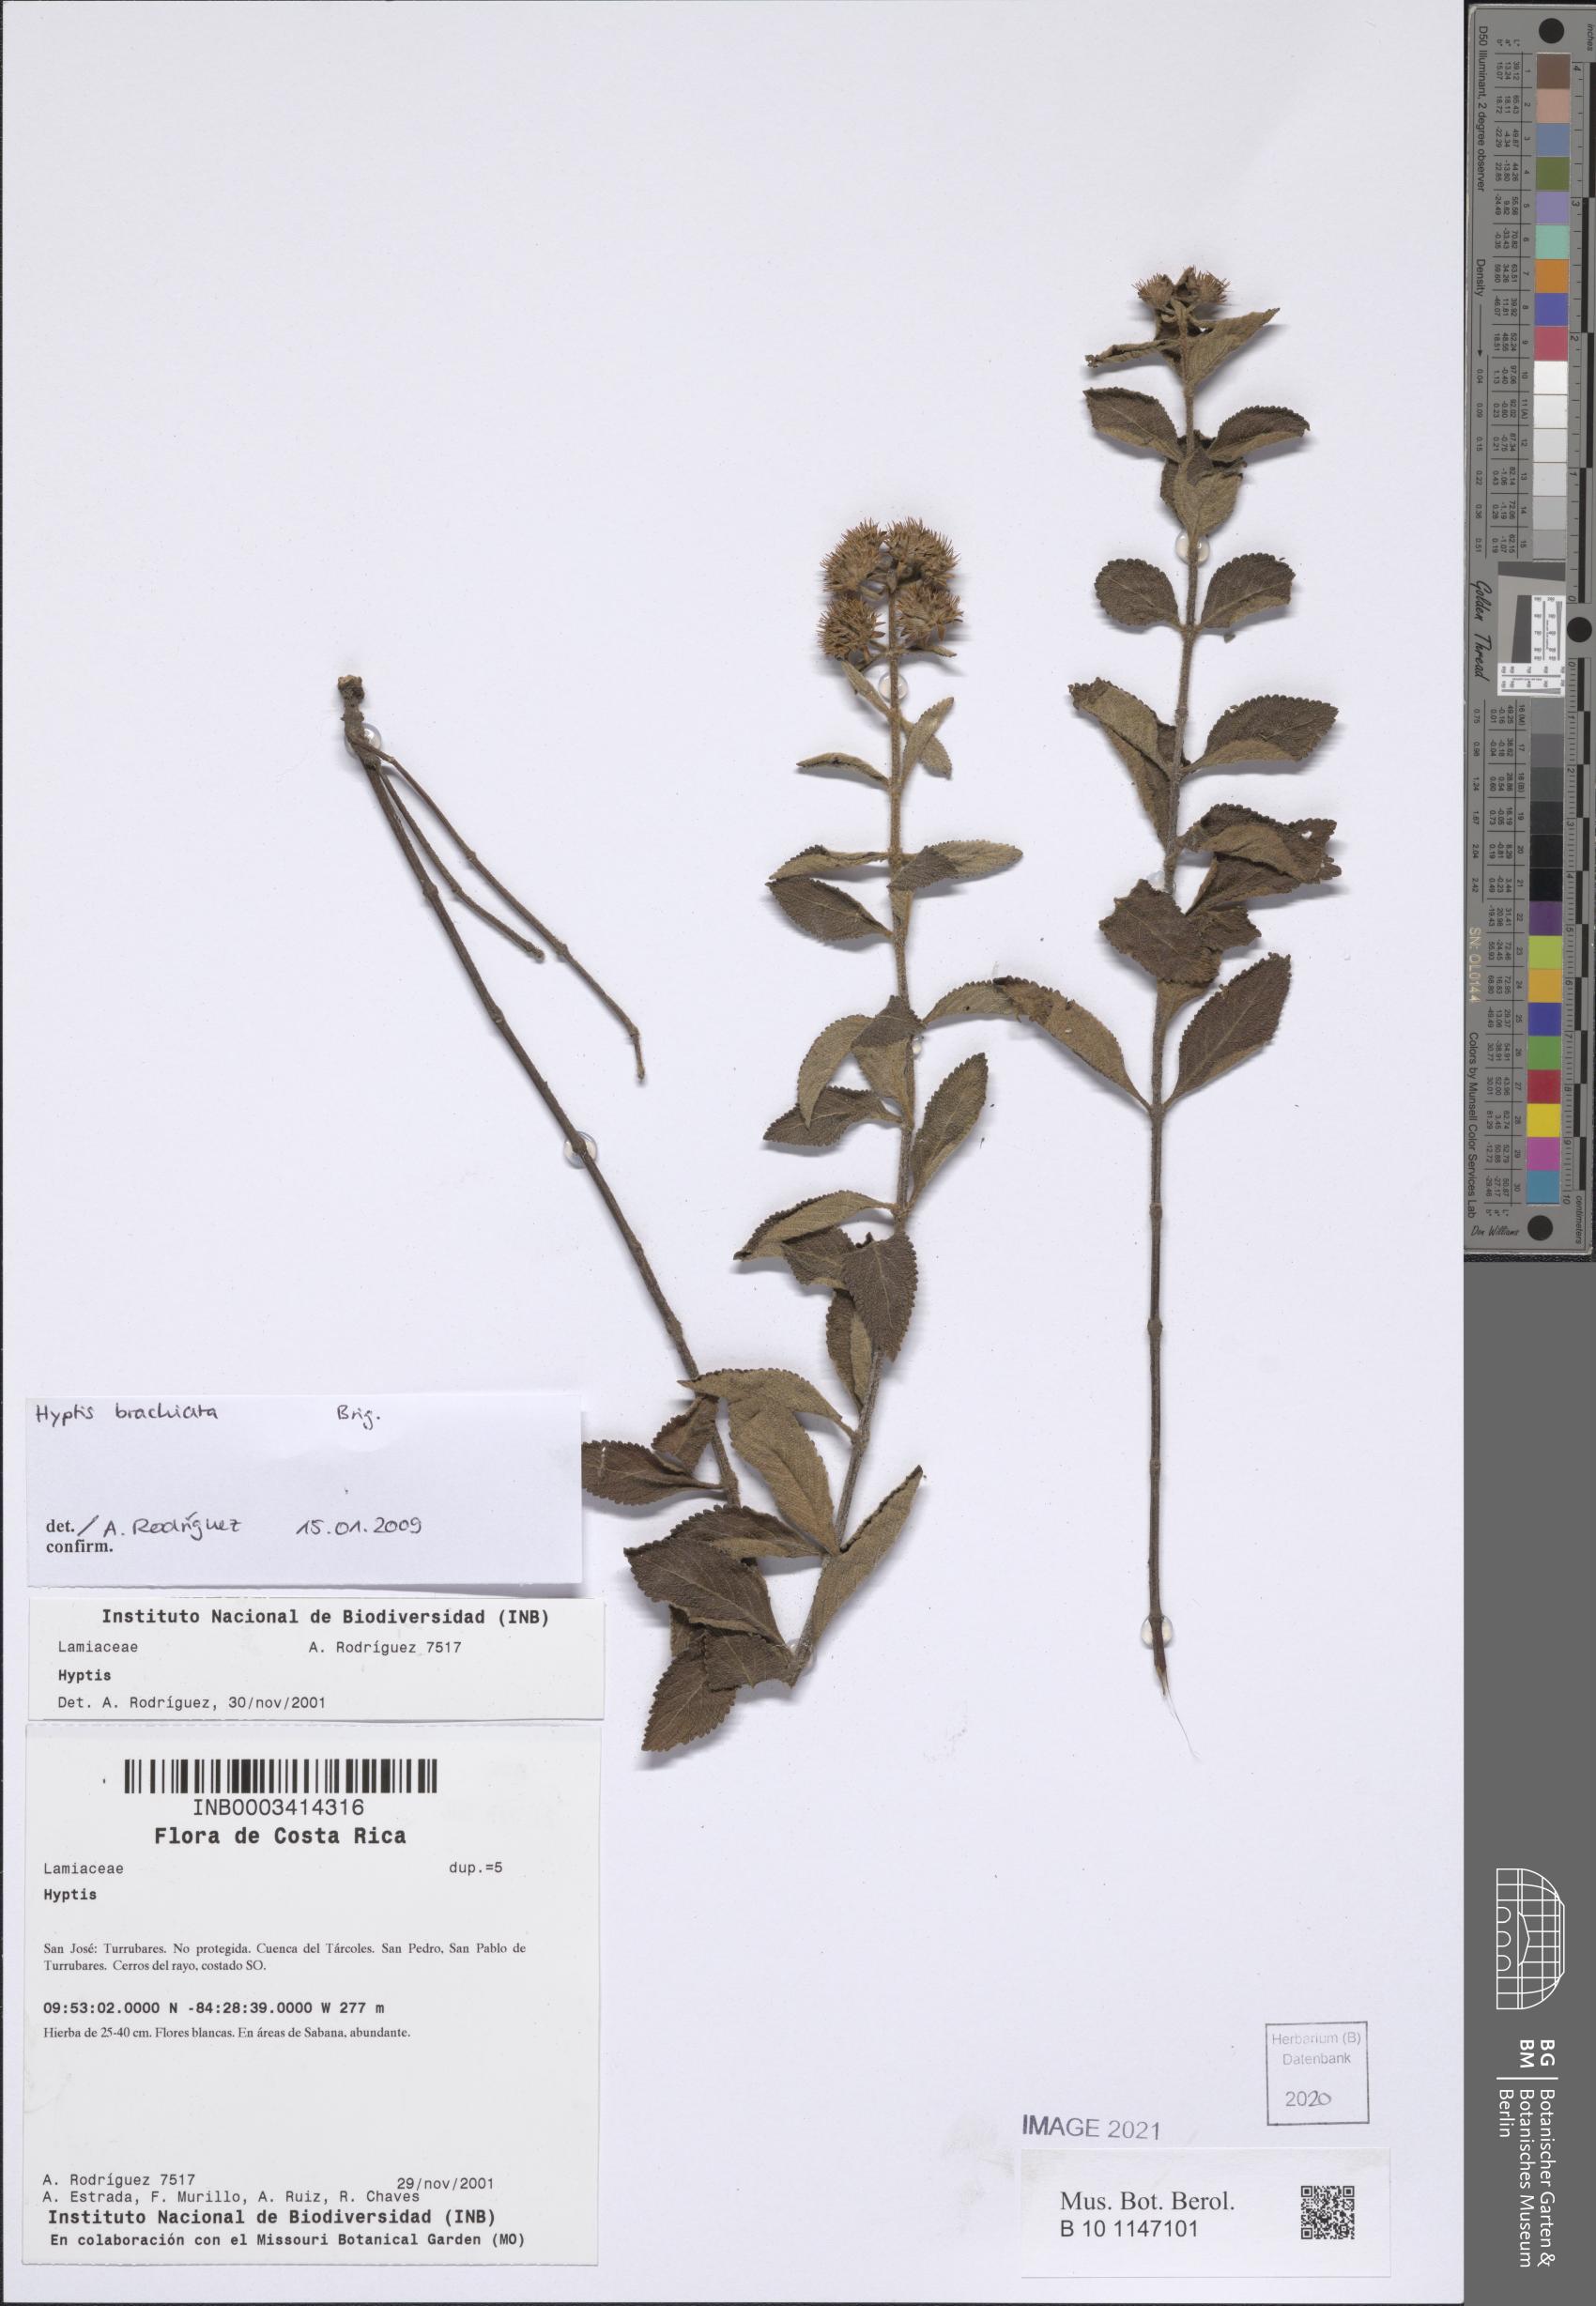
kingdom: Plantae
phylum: Tracheophyta
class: Magnoliopsida
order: Lamiales
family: Lamiaceae
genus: Hyptis
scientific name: Hyptis brachiata
